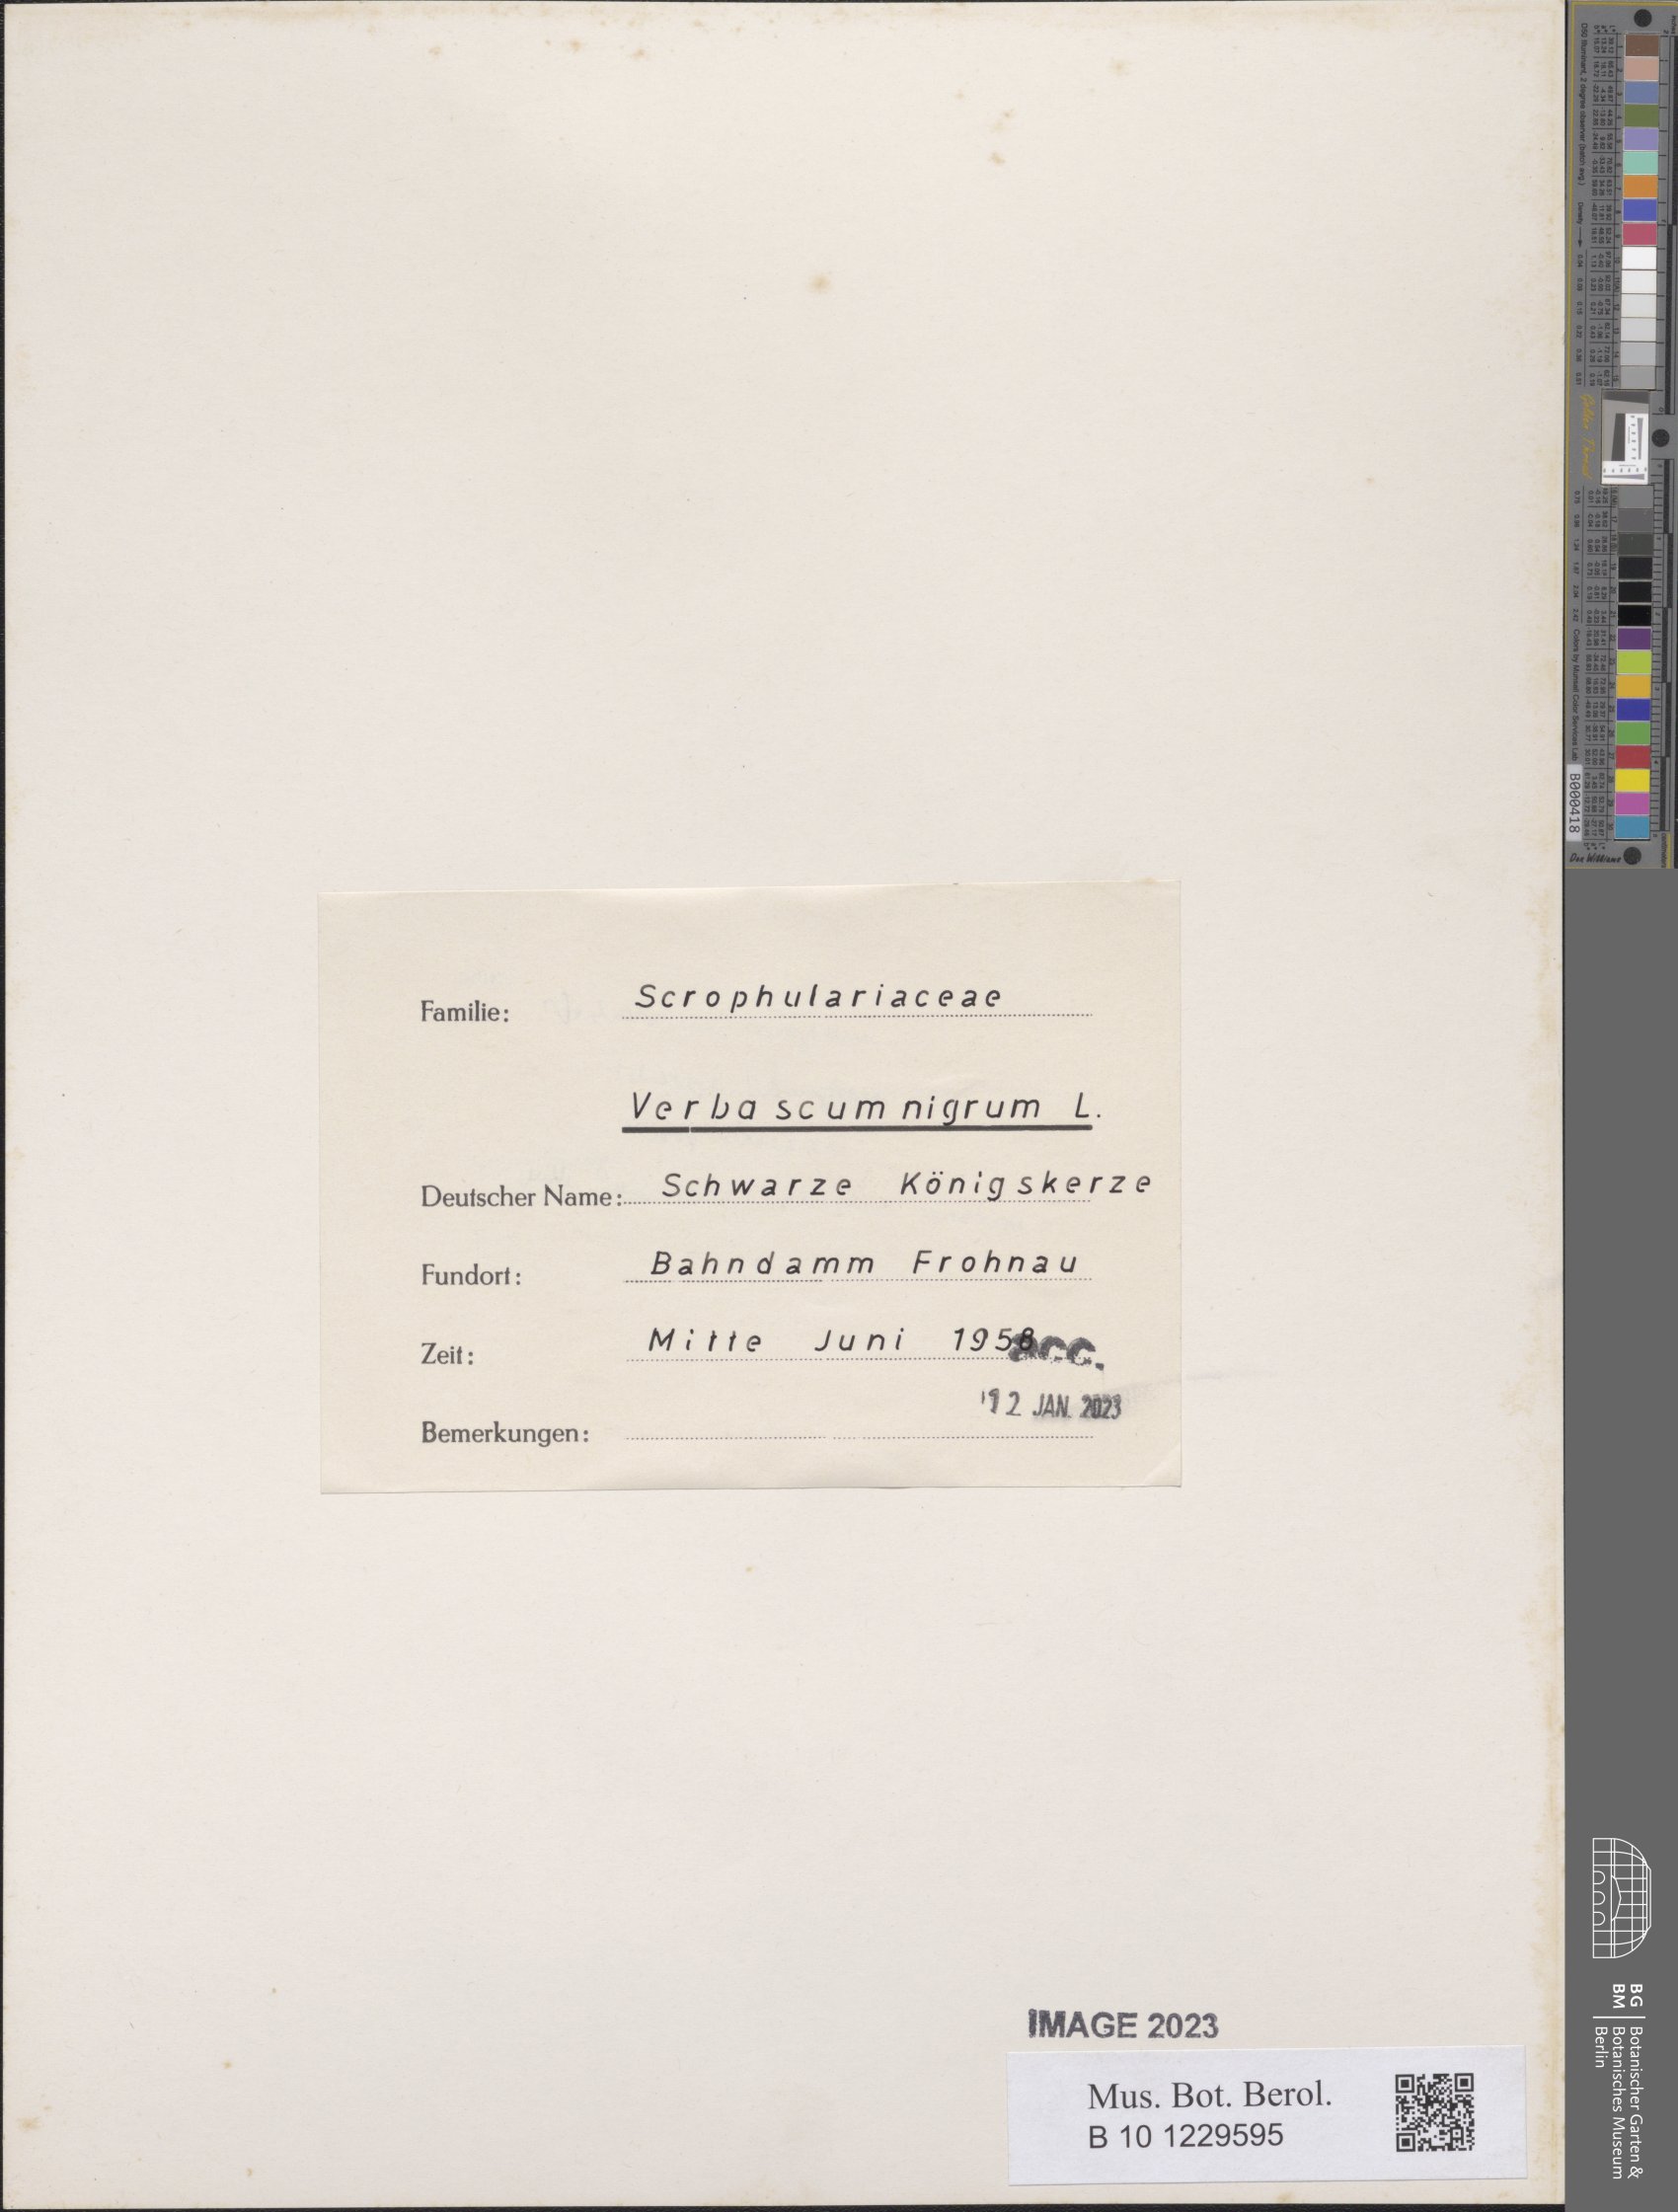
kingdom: Plantae
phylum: Tracheophyta
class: Magnoliopsida
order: Lamiales
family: Scrophulariaceae
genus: Verbascum
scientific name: Verbascum nigrum
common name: Dark mullein
